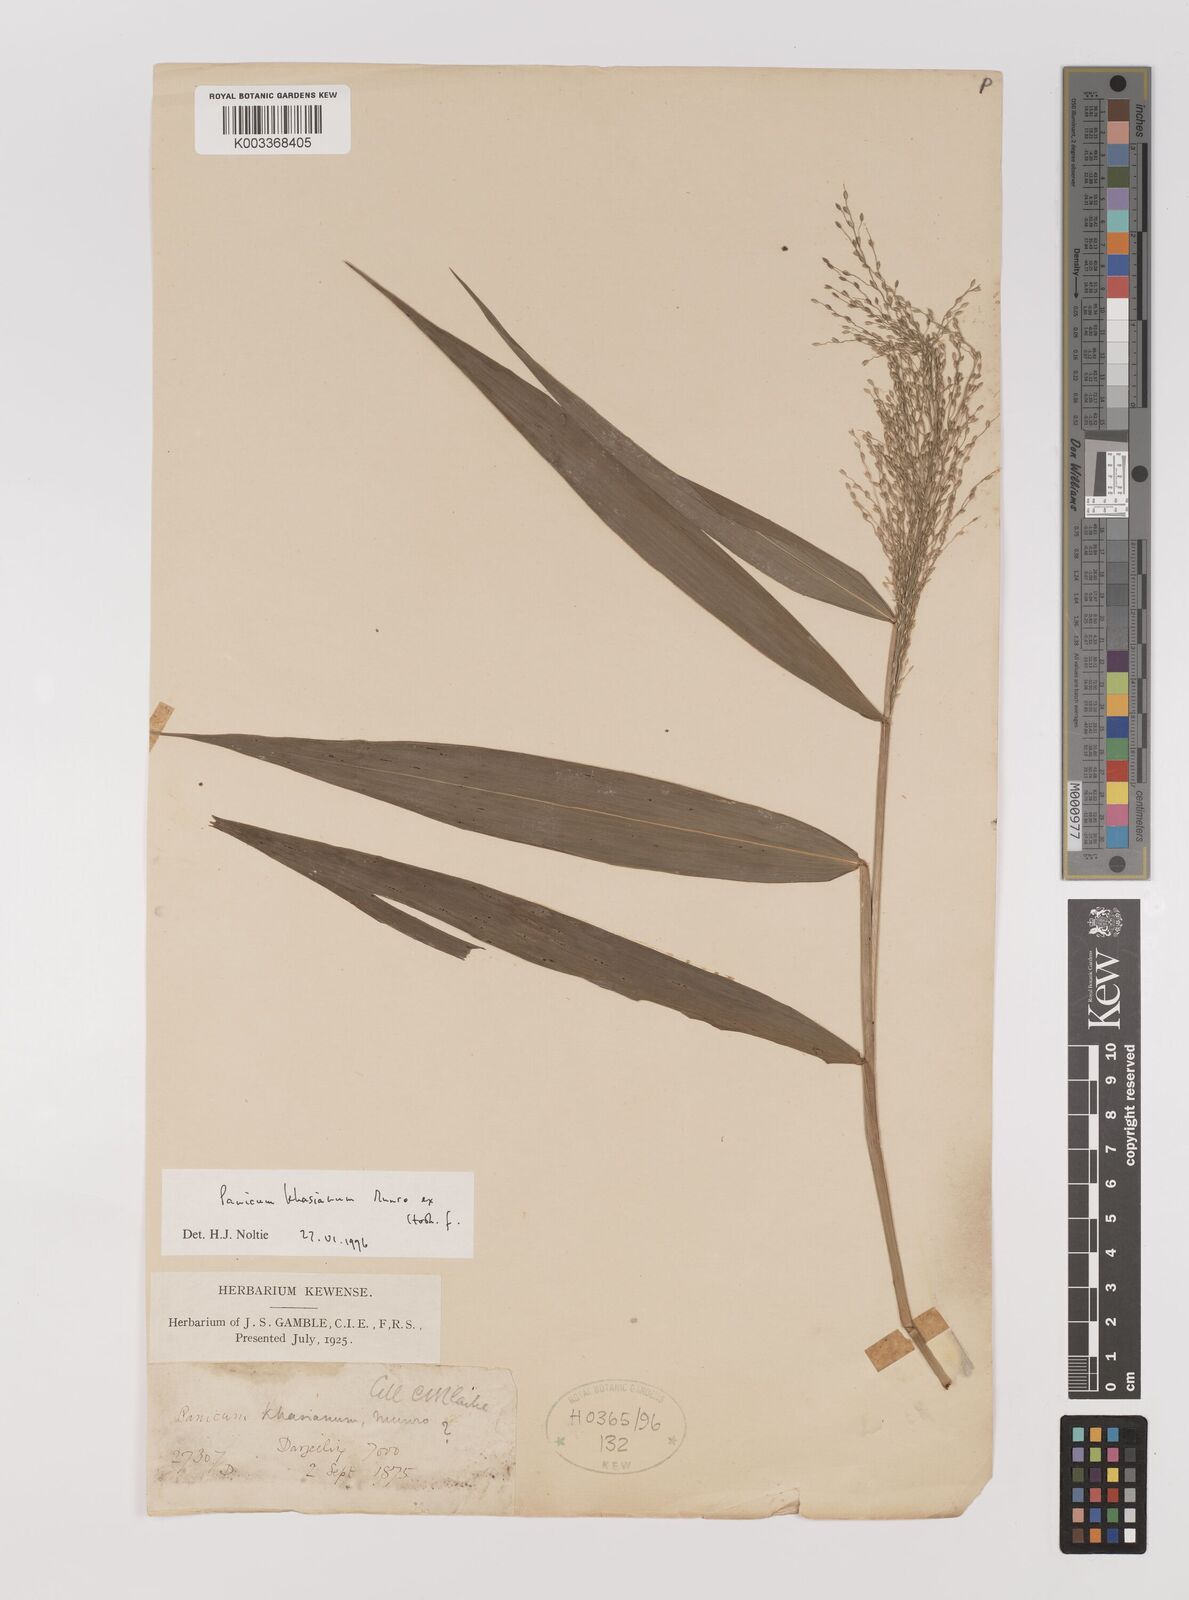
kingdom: Plantae
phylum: Tracheophyta
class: Liliopsida
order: Poales
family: Poaceae
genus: Panicum
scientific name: Panicum khasianum
